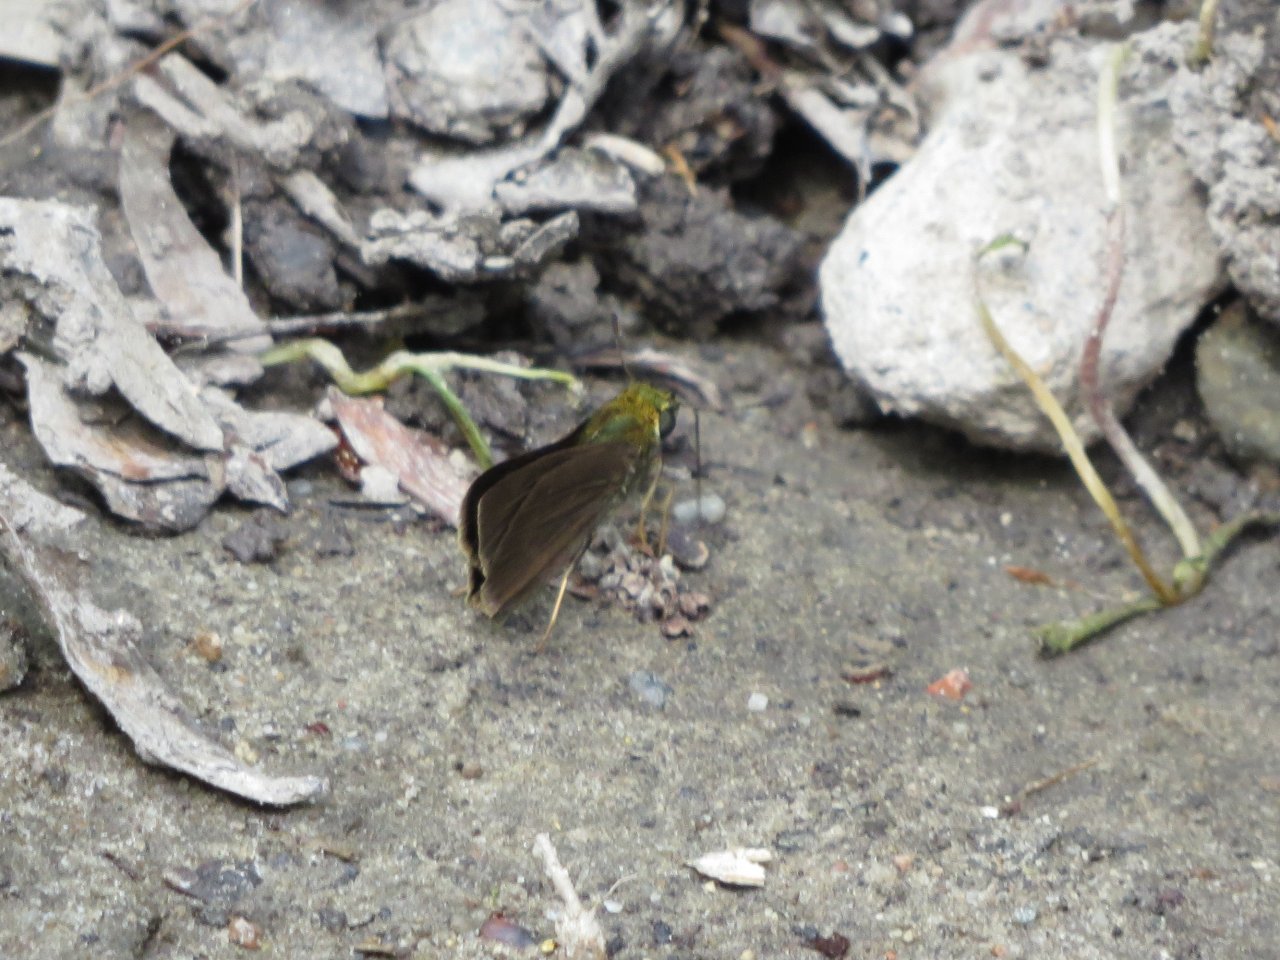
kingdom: Animalia
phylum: Arthropoda
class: Insecta
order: Lepidoptera
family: Hesperiidae
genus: Euphyes
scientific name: Euphyes vestris
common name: Dun Skipper
